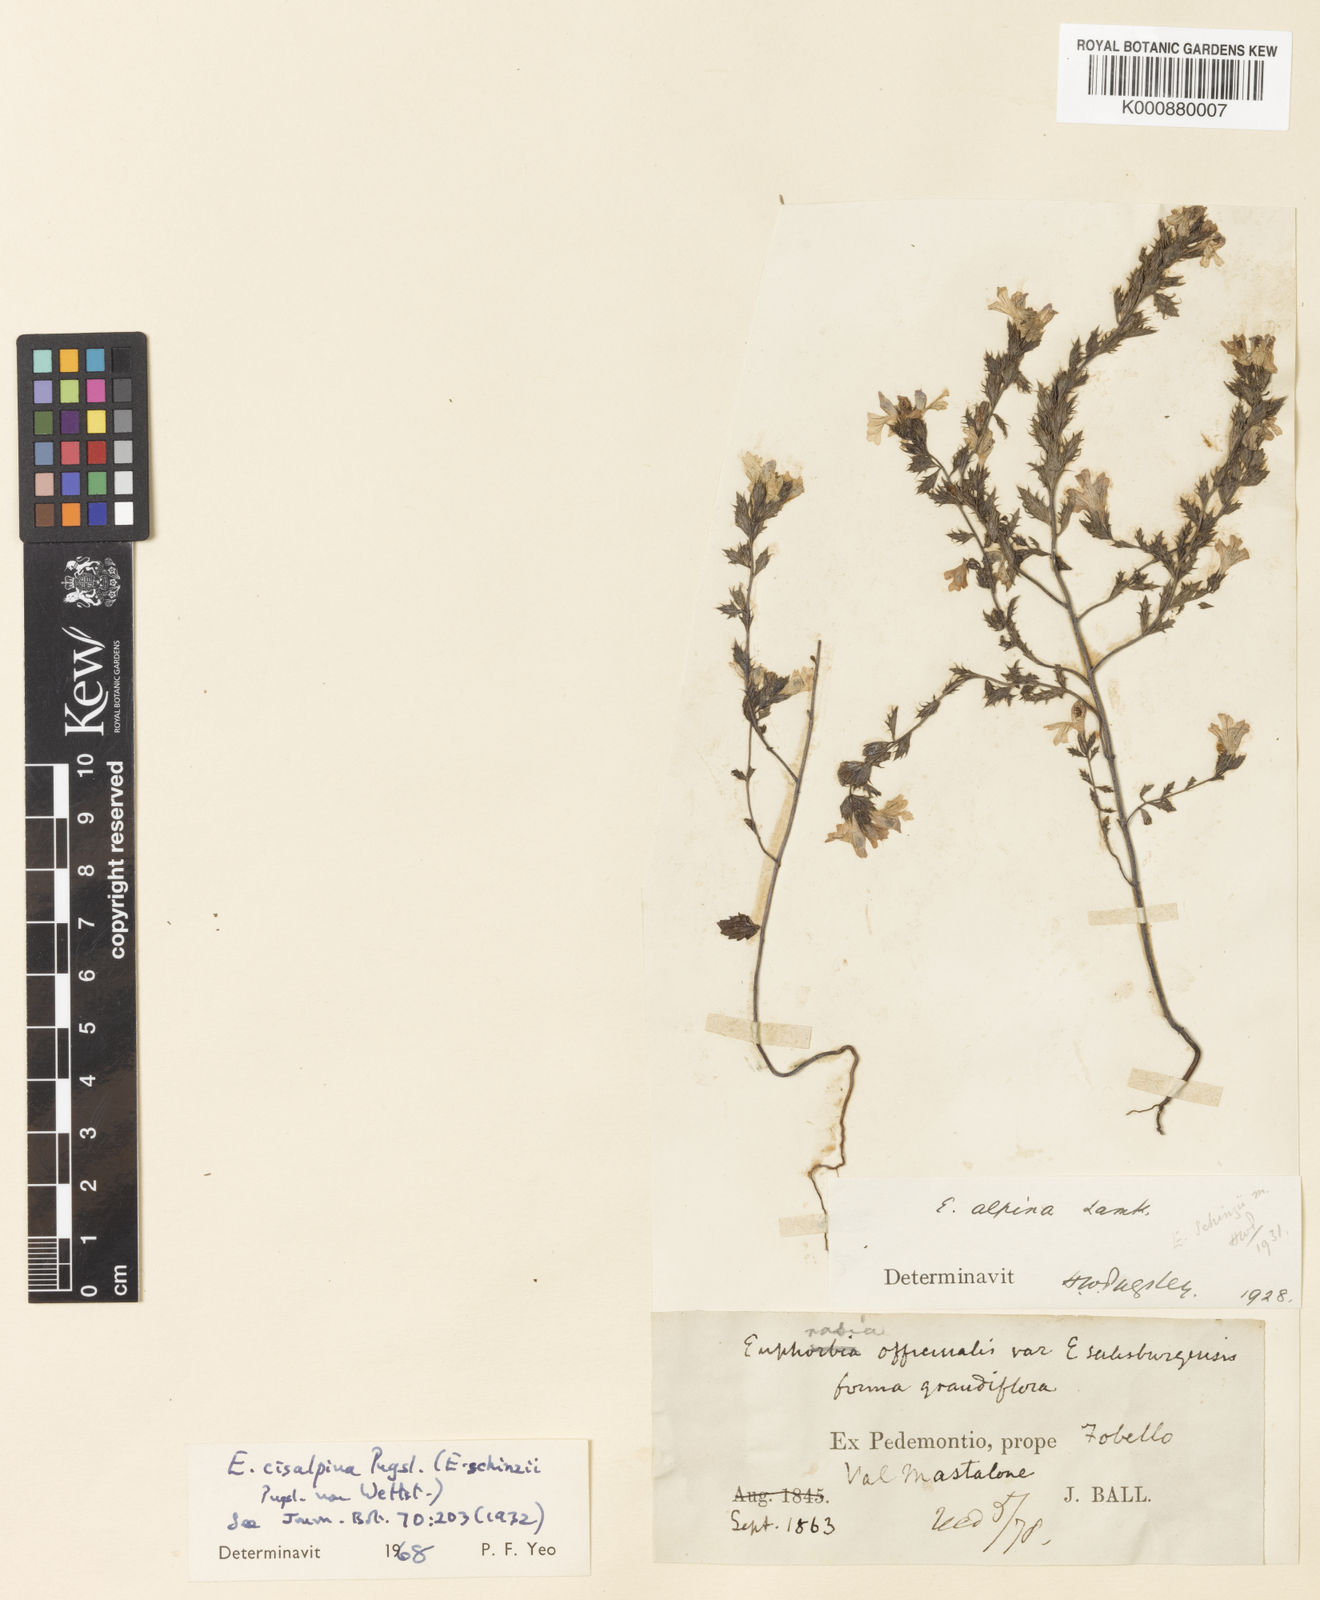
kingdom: Plantae
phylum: Tracheophyta
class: Magnoliopsida
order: Lamiales
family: Orobanchaceae
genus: Euphrasia
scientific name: Euphrasia cisalpina
